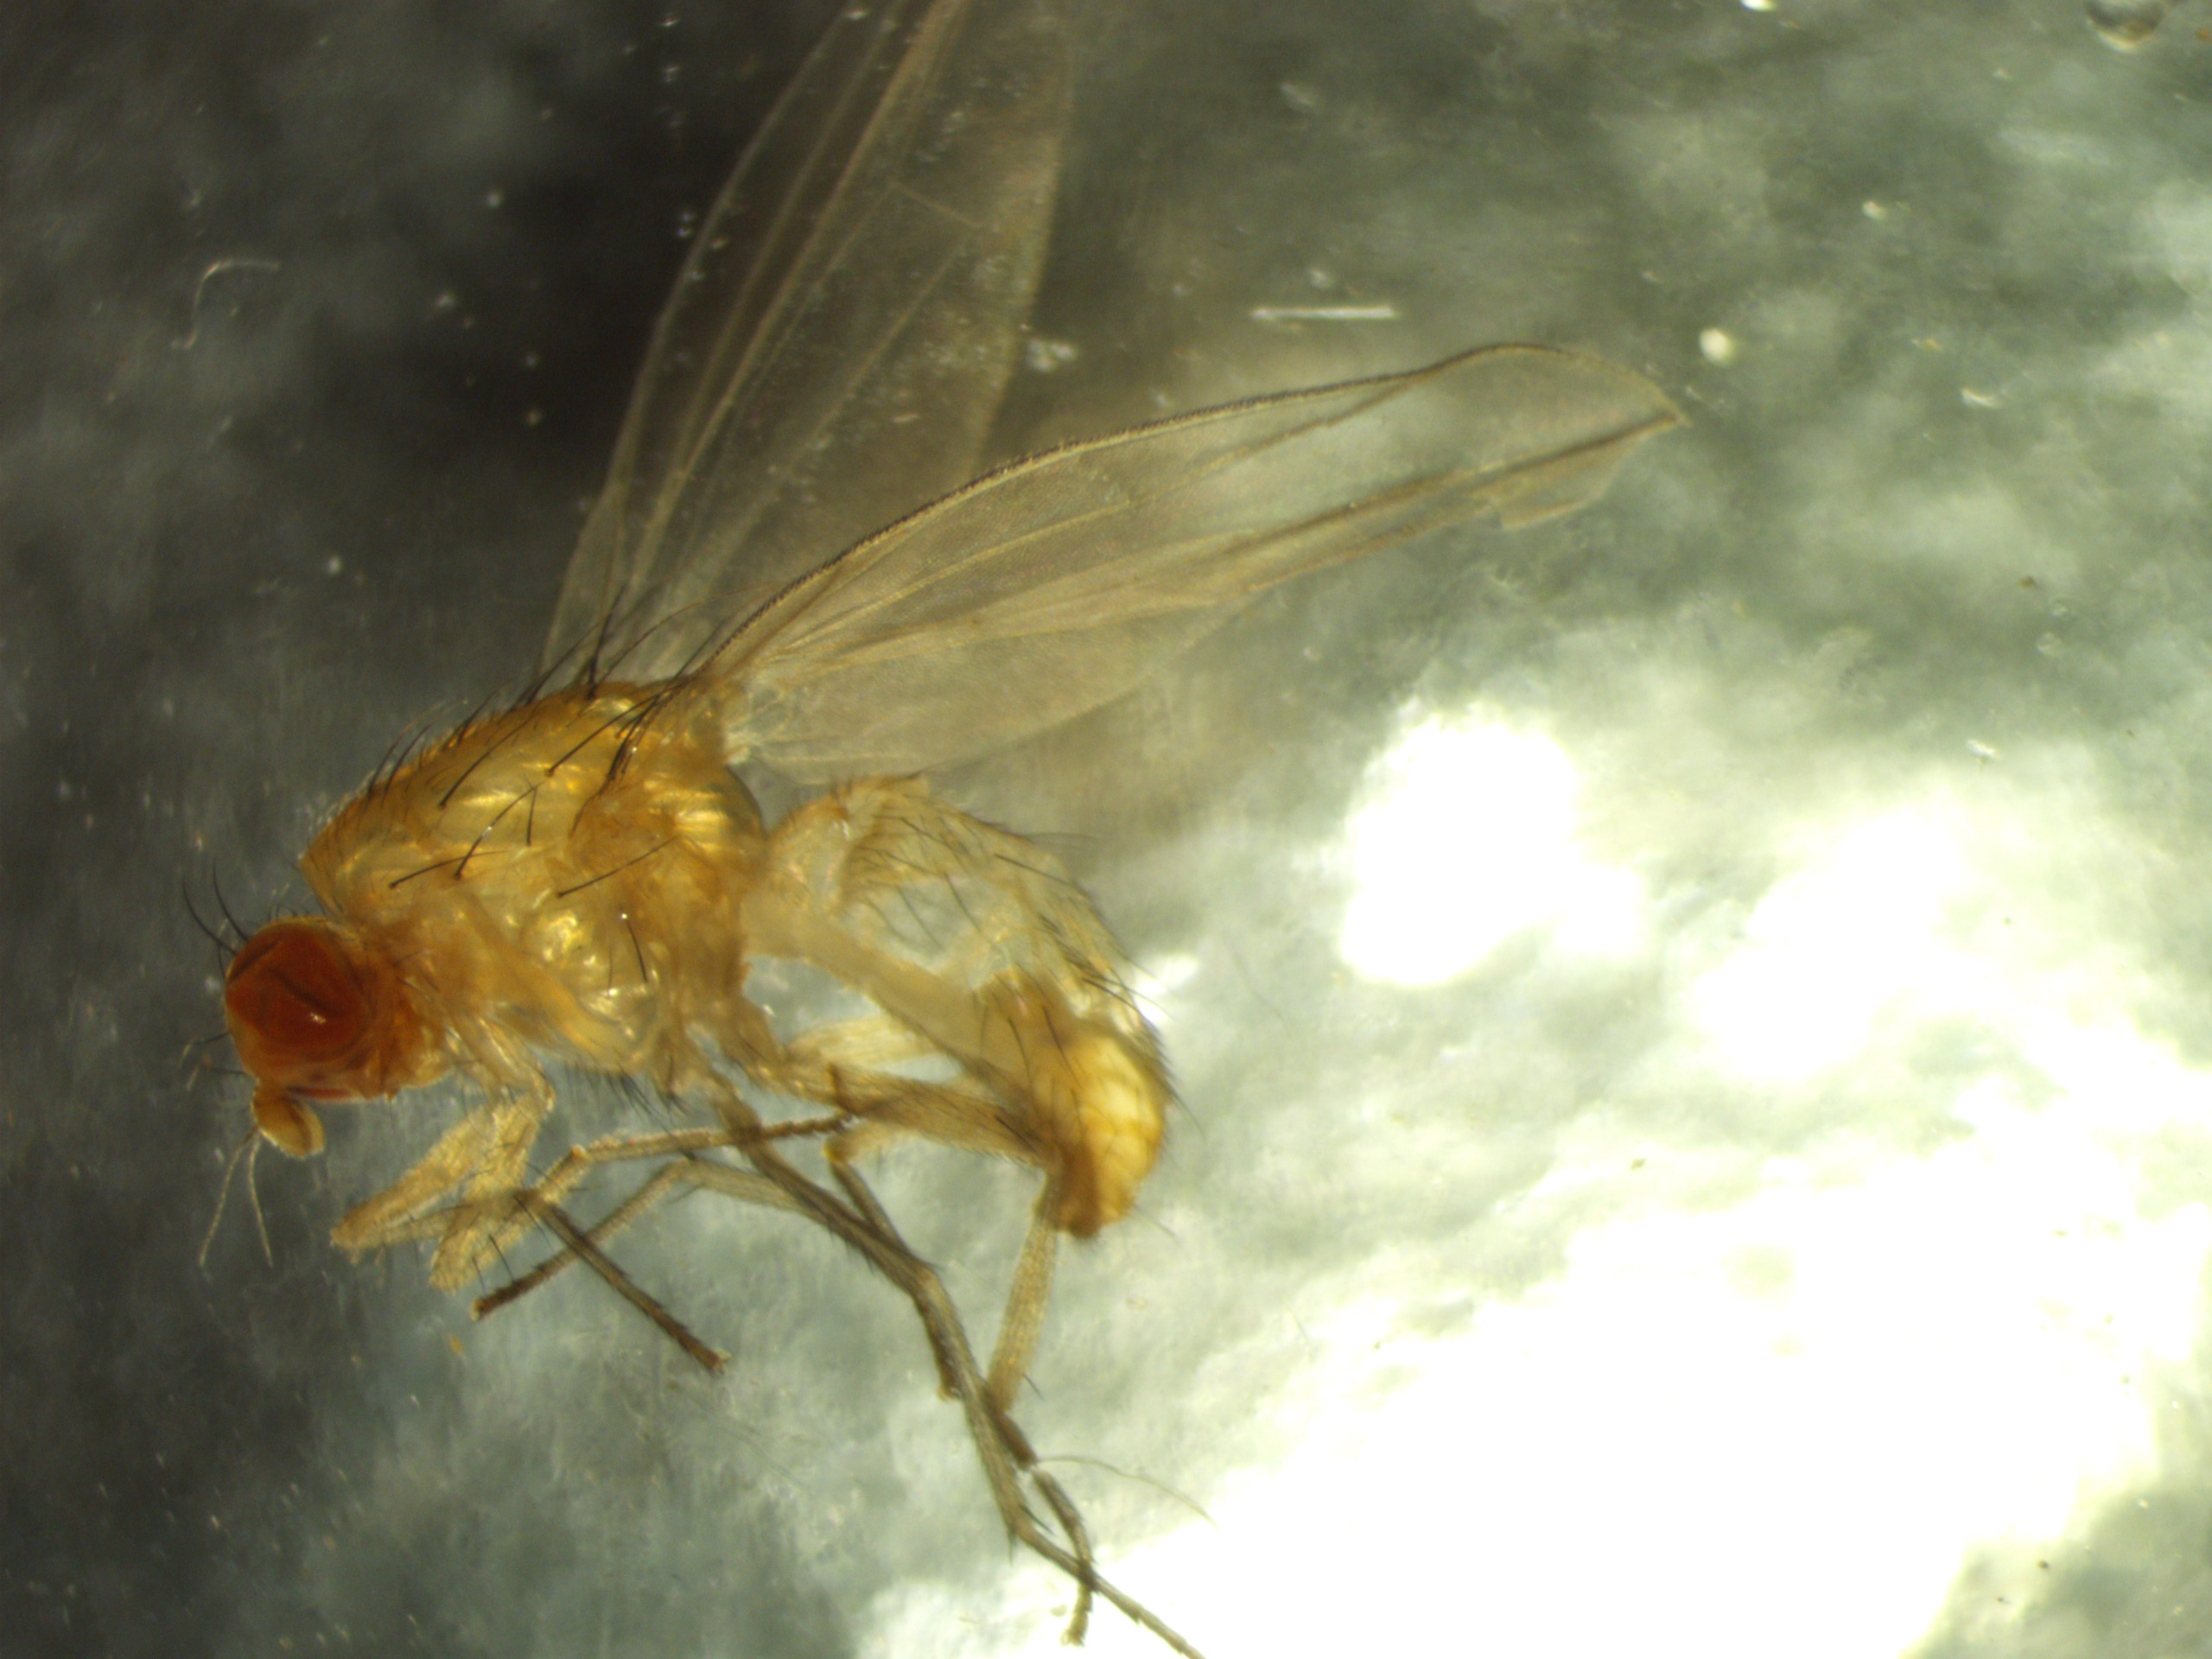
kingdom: Animalia
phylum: Arthropoda
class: Insecta
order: Diptera
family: Lauxaniidae
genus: Meiosimyza
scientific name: Meiosimyza rorida
